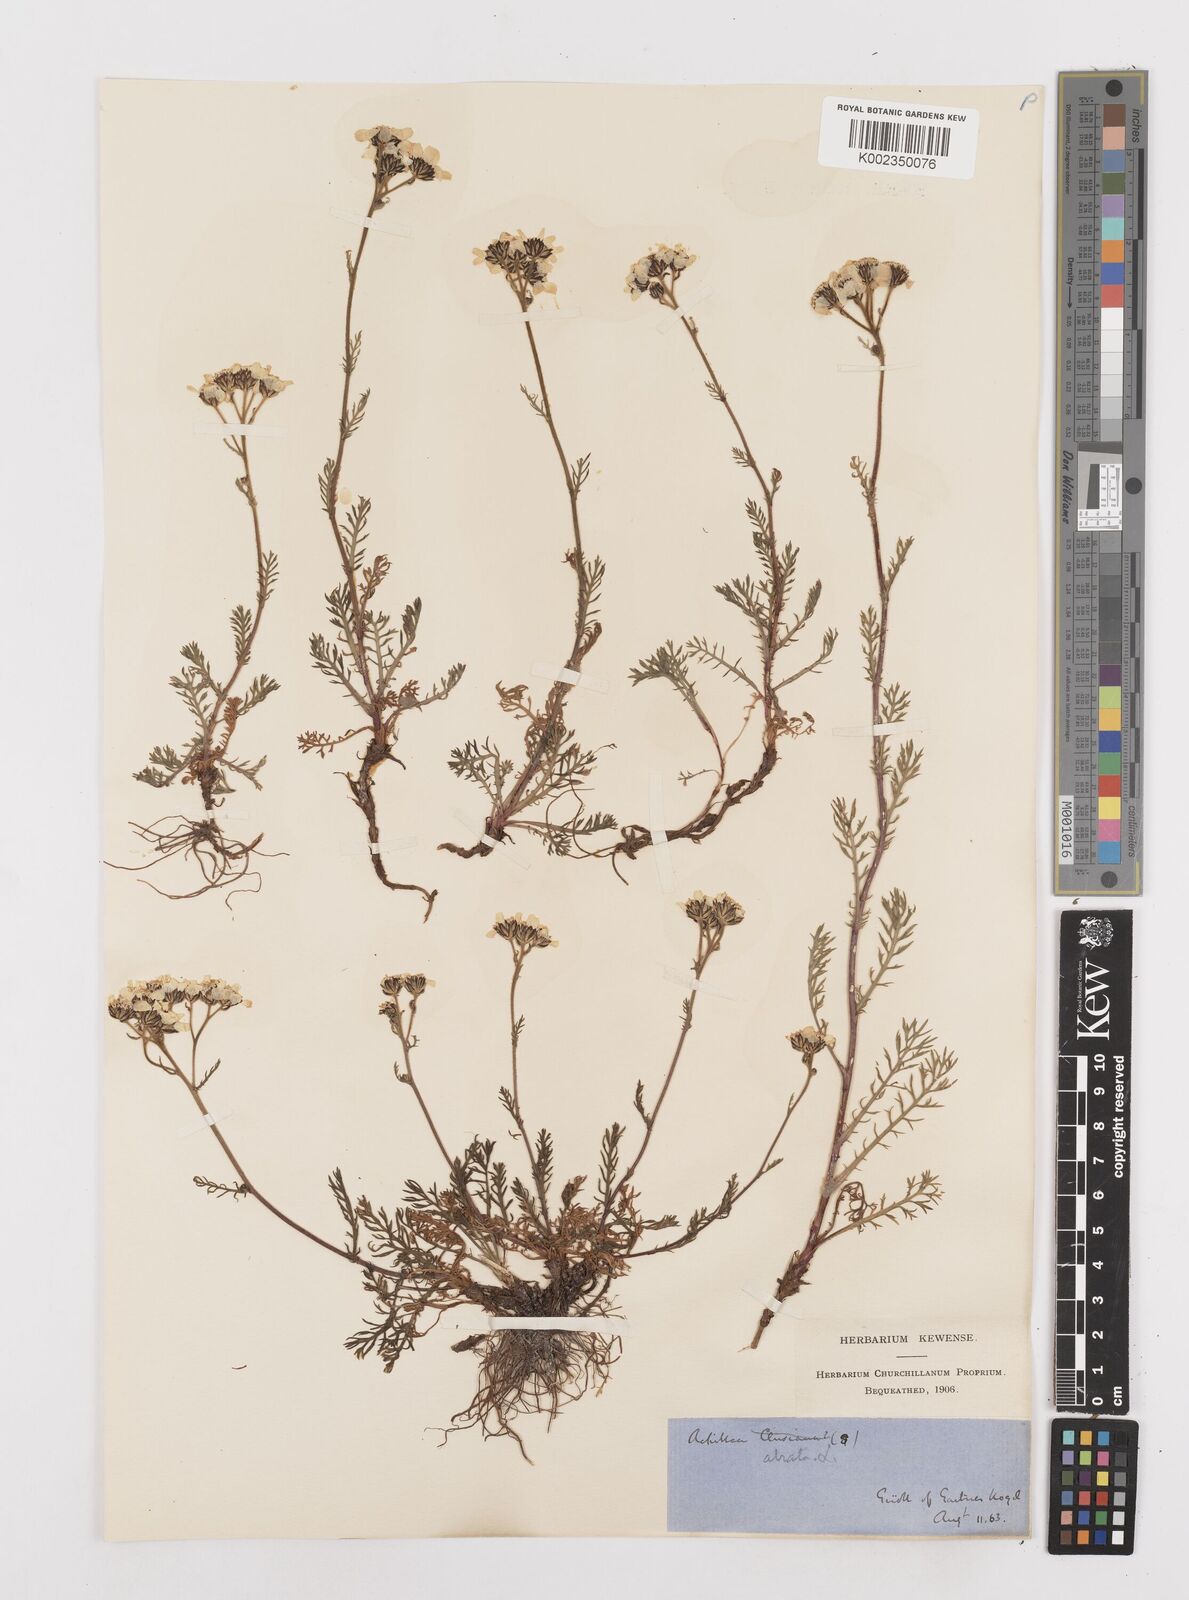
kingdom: Plantae
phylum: Tracheophyta
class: Magnoliopsida
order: Asterales
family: Asteraceae
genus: Achillea
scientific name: Achillea atrata
